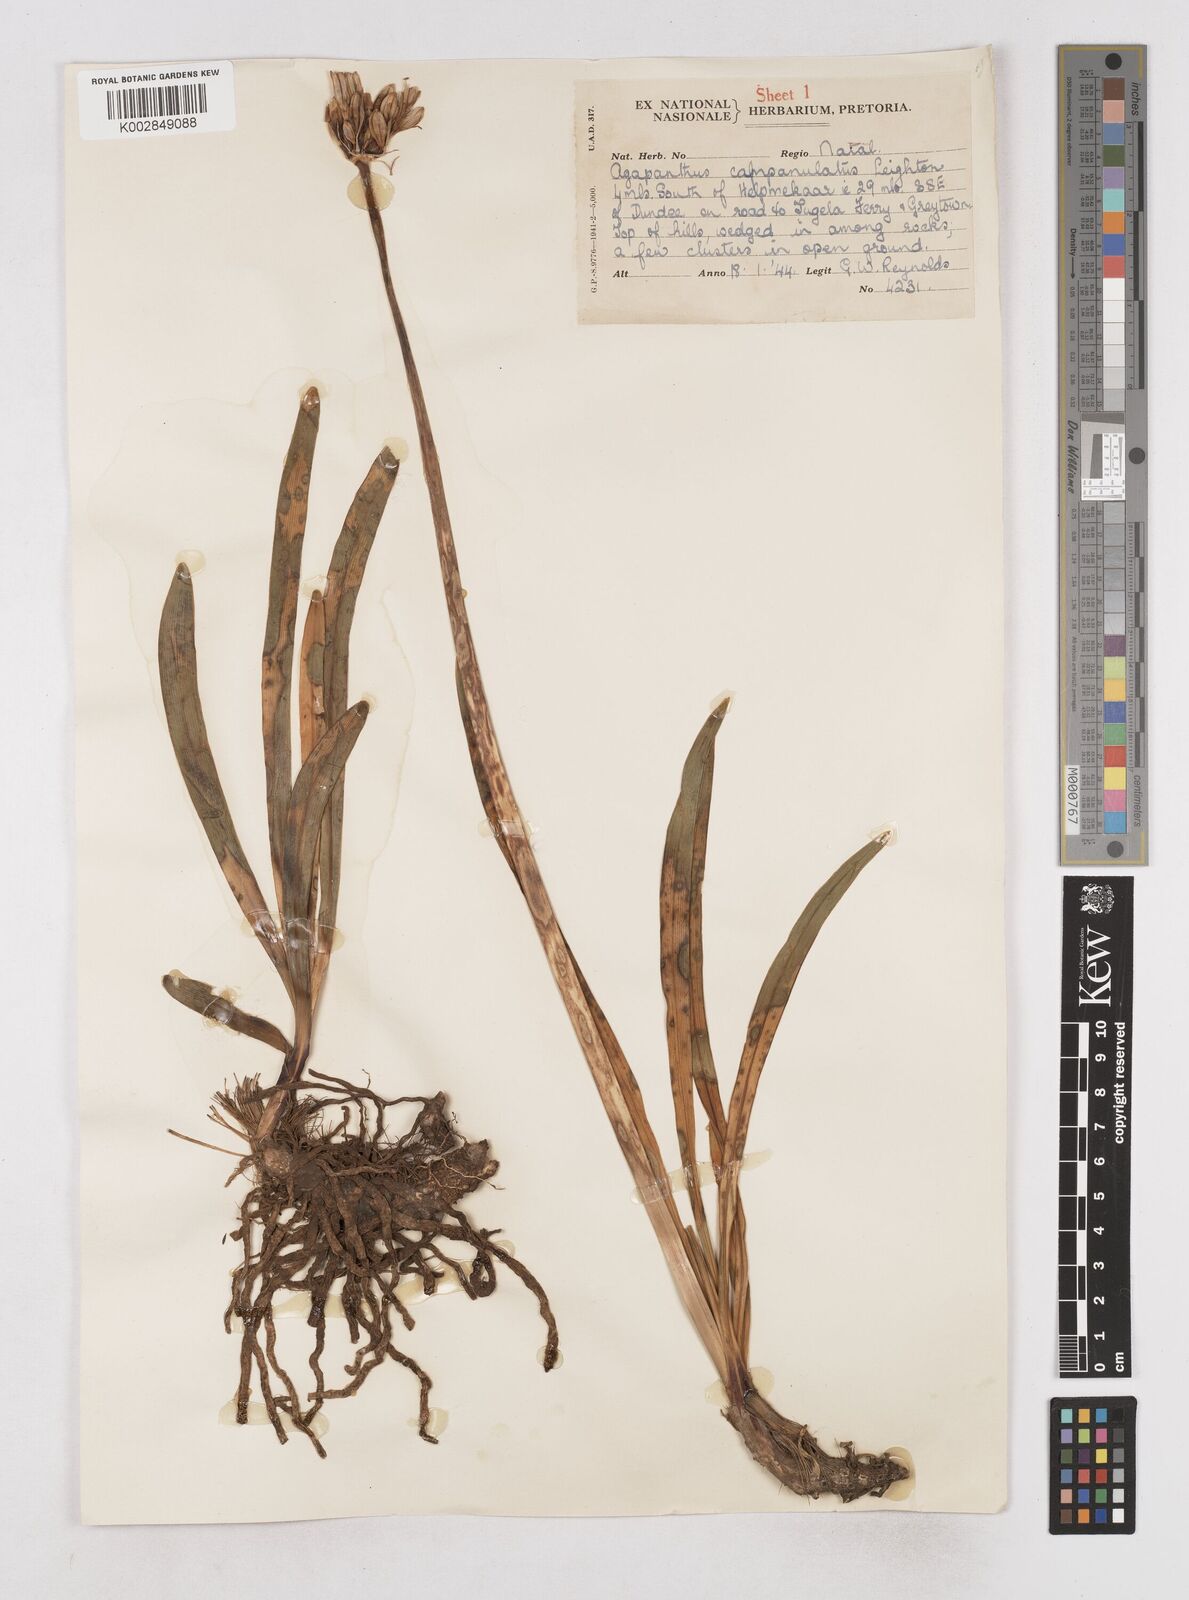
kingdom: Plantae
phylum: Tracheophyta
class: Liliopsida
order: Asparagales
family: Amaryllidaceae
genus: Agapanthus
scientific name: Agapanthus campanulatus
